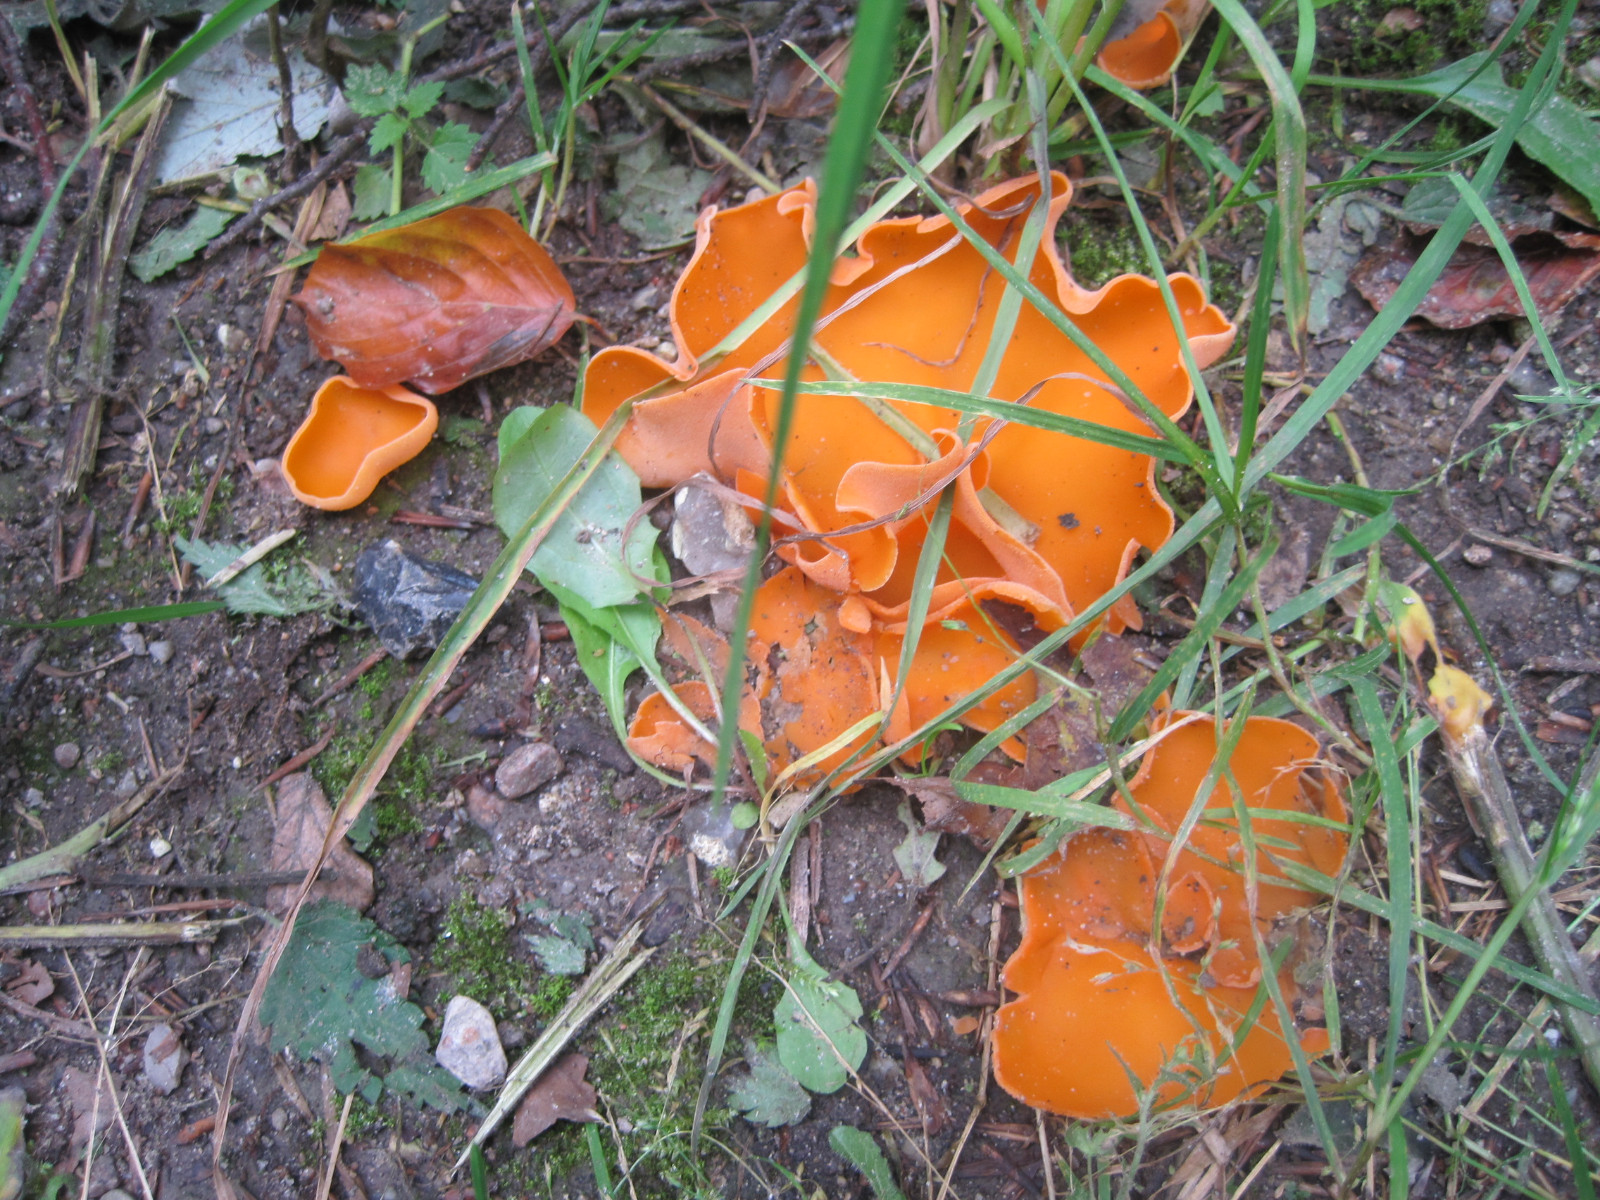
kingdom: Fungi
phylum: Ascomycota
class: Pezizomycetes
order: Pezizales
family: Pyronemataceae
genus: Aleuria
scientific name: Aleuria aurantia
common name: almindelig orangebæger
